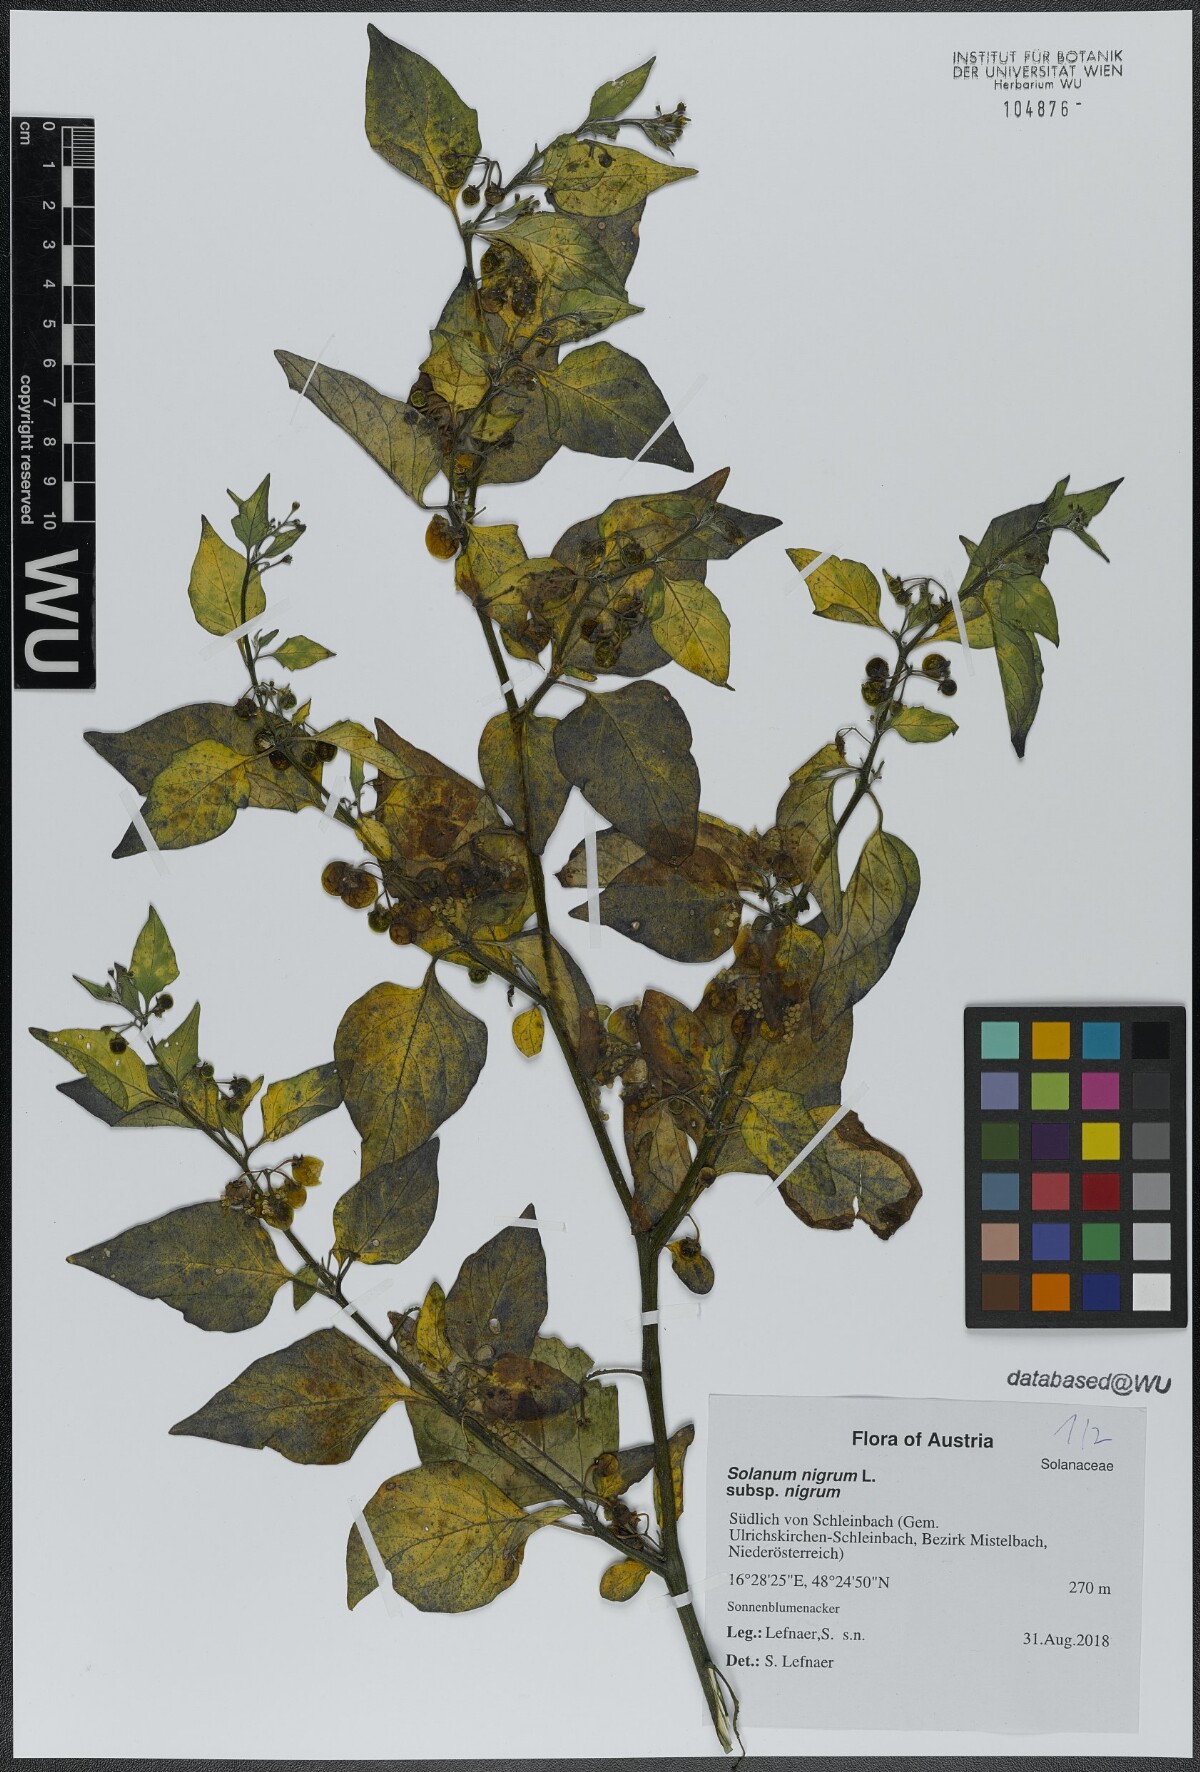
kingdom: Plantae
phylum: Tracheophyta
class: Magnoliopsida
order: Solanales
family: Solanaceae
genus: Solanum
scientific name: Solanum nigrum
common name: Black nightshade
